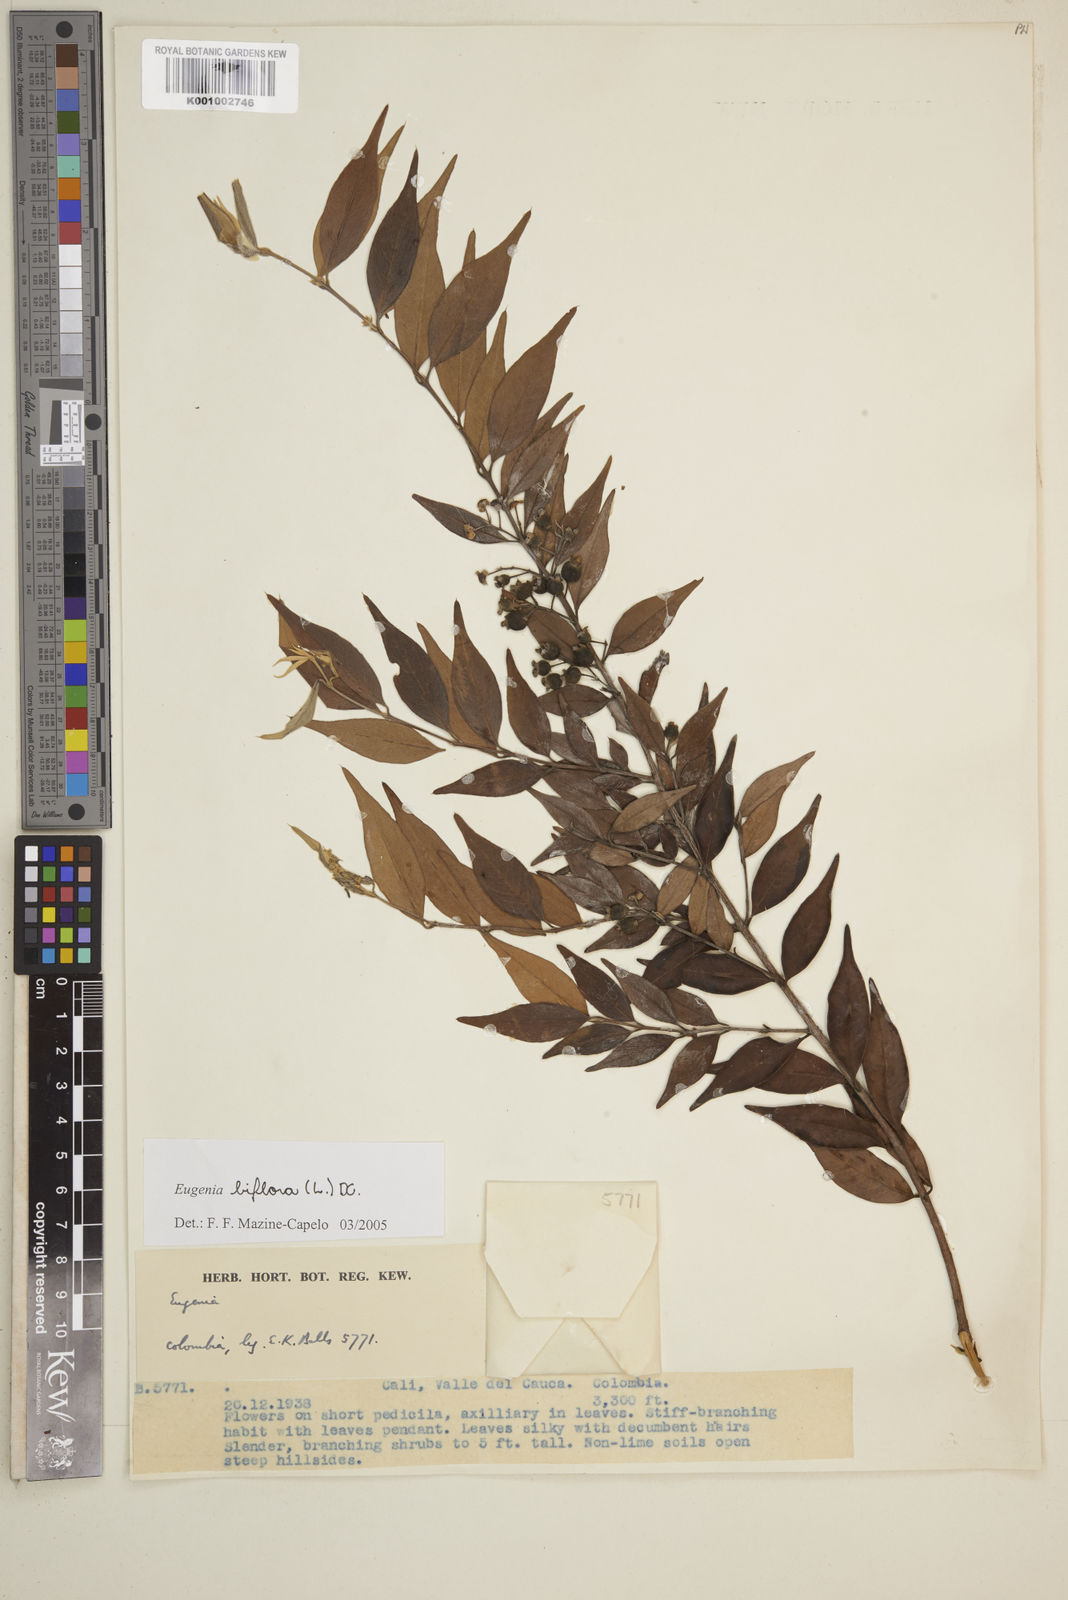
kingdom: Plantae
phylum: Tracheophyta
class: Magnoliopsida
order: Myrtales
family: Myrtaceae
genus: Eugenia
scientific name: Eugenia biflora
